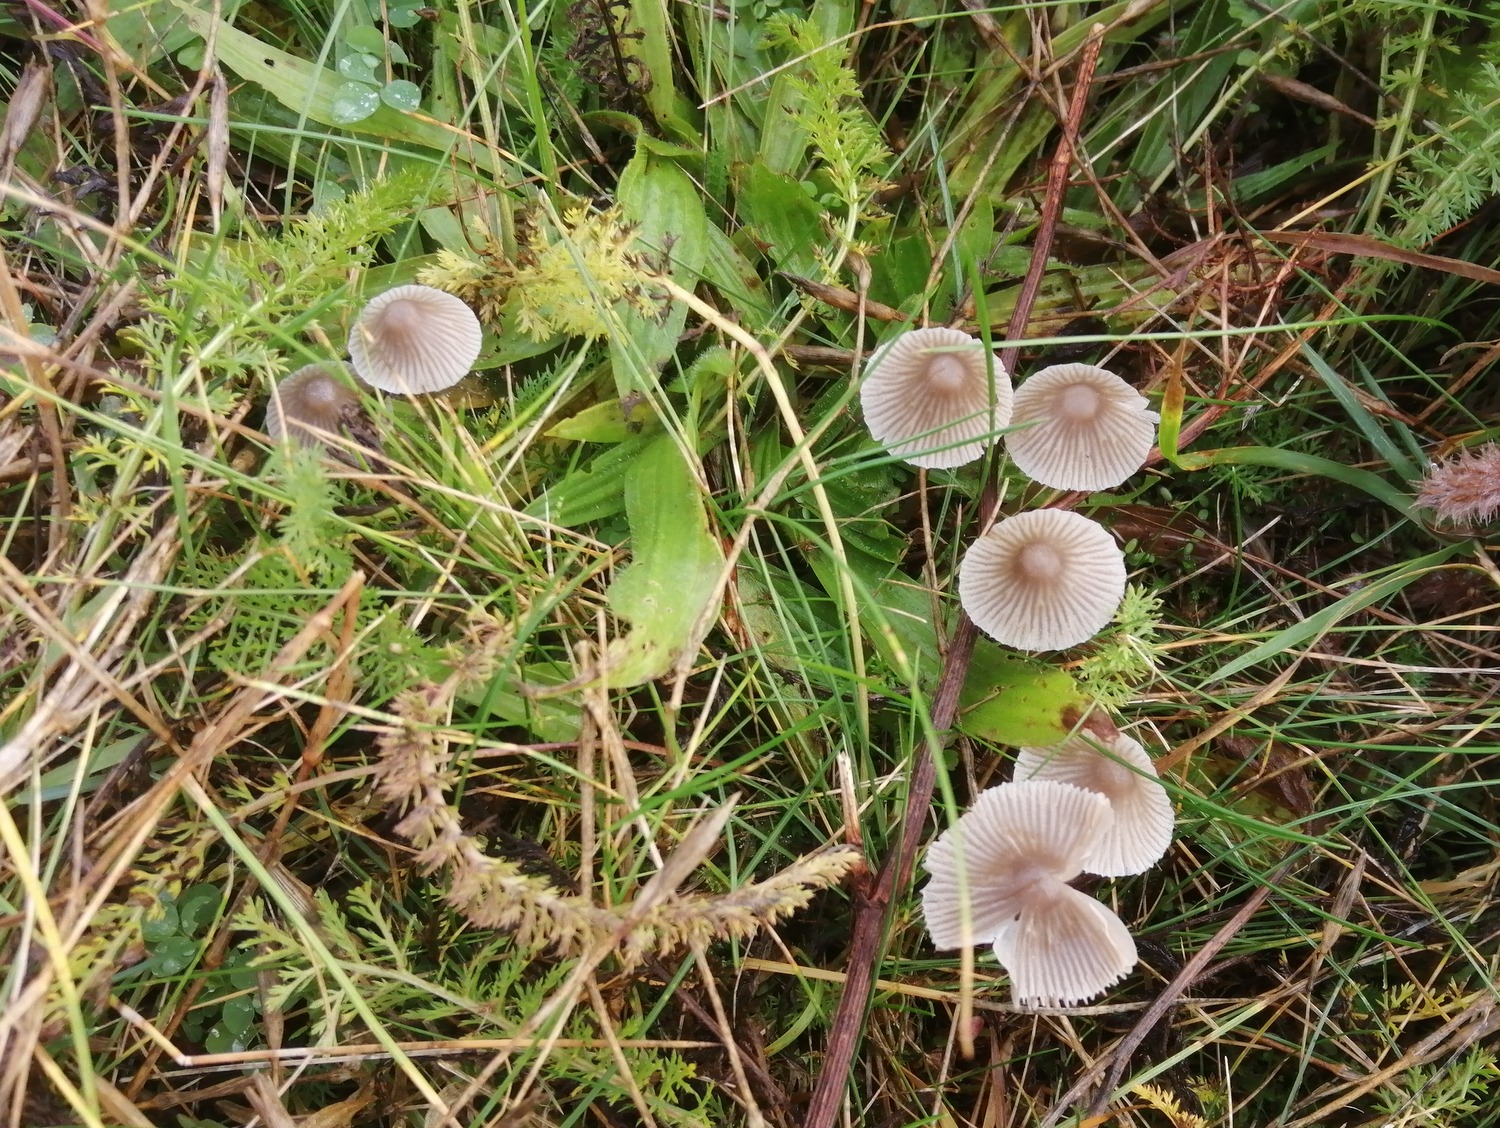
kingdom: Fungi
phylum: Basidiomycota
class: Agaricomycetes
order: Agaricales
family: Mycenaceae
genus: Mycena
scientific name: Mycena aetites
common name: plæne-huesvamp
